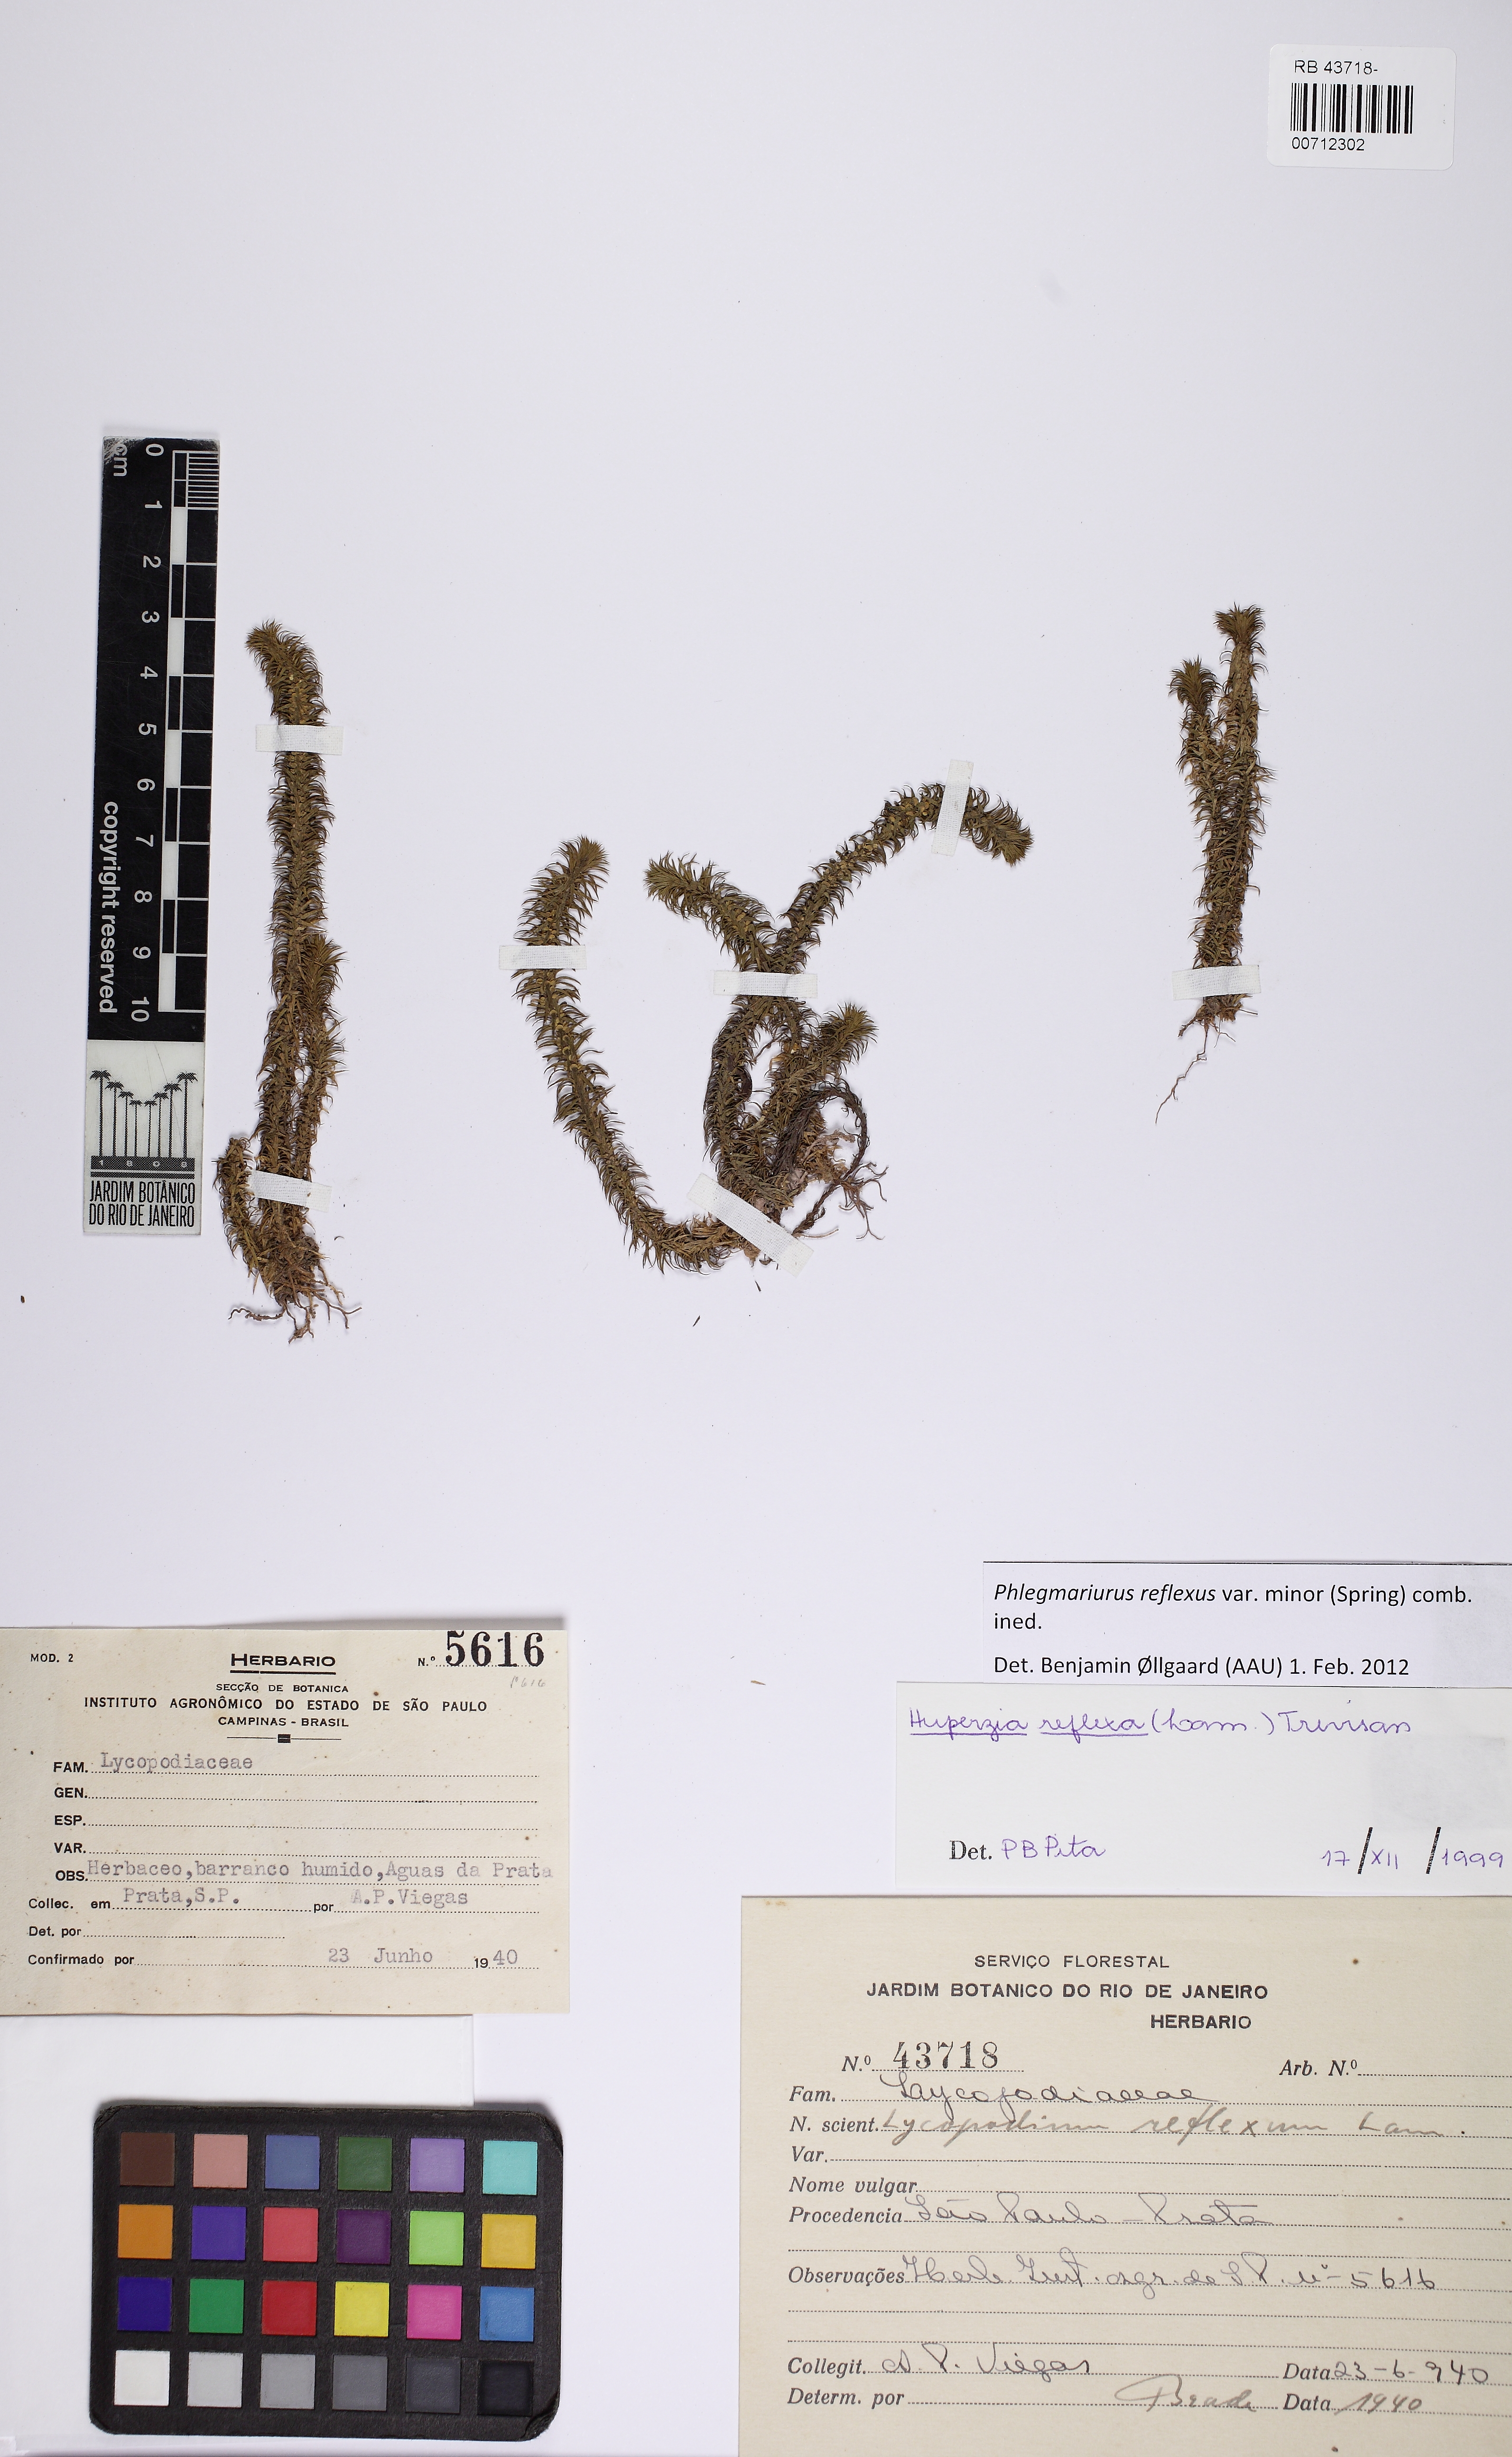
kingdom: Plantae
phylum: Tracheophyta
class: Lycopodiopsida
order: Lycopodiales
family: Lycopodiaceae
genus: Phlegmariurus
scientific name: Phlegmariurus reflexus
